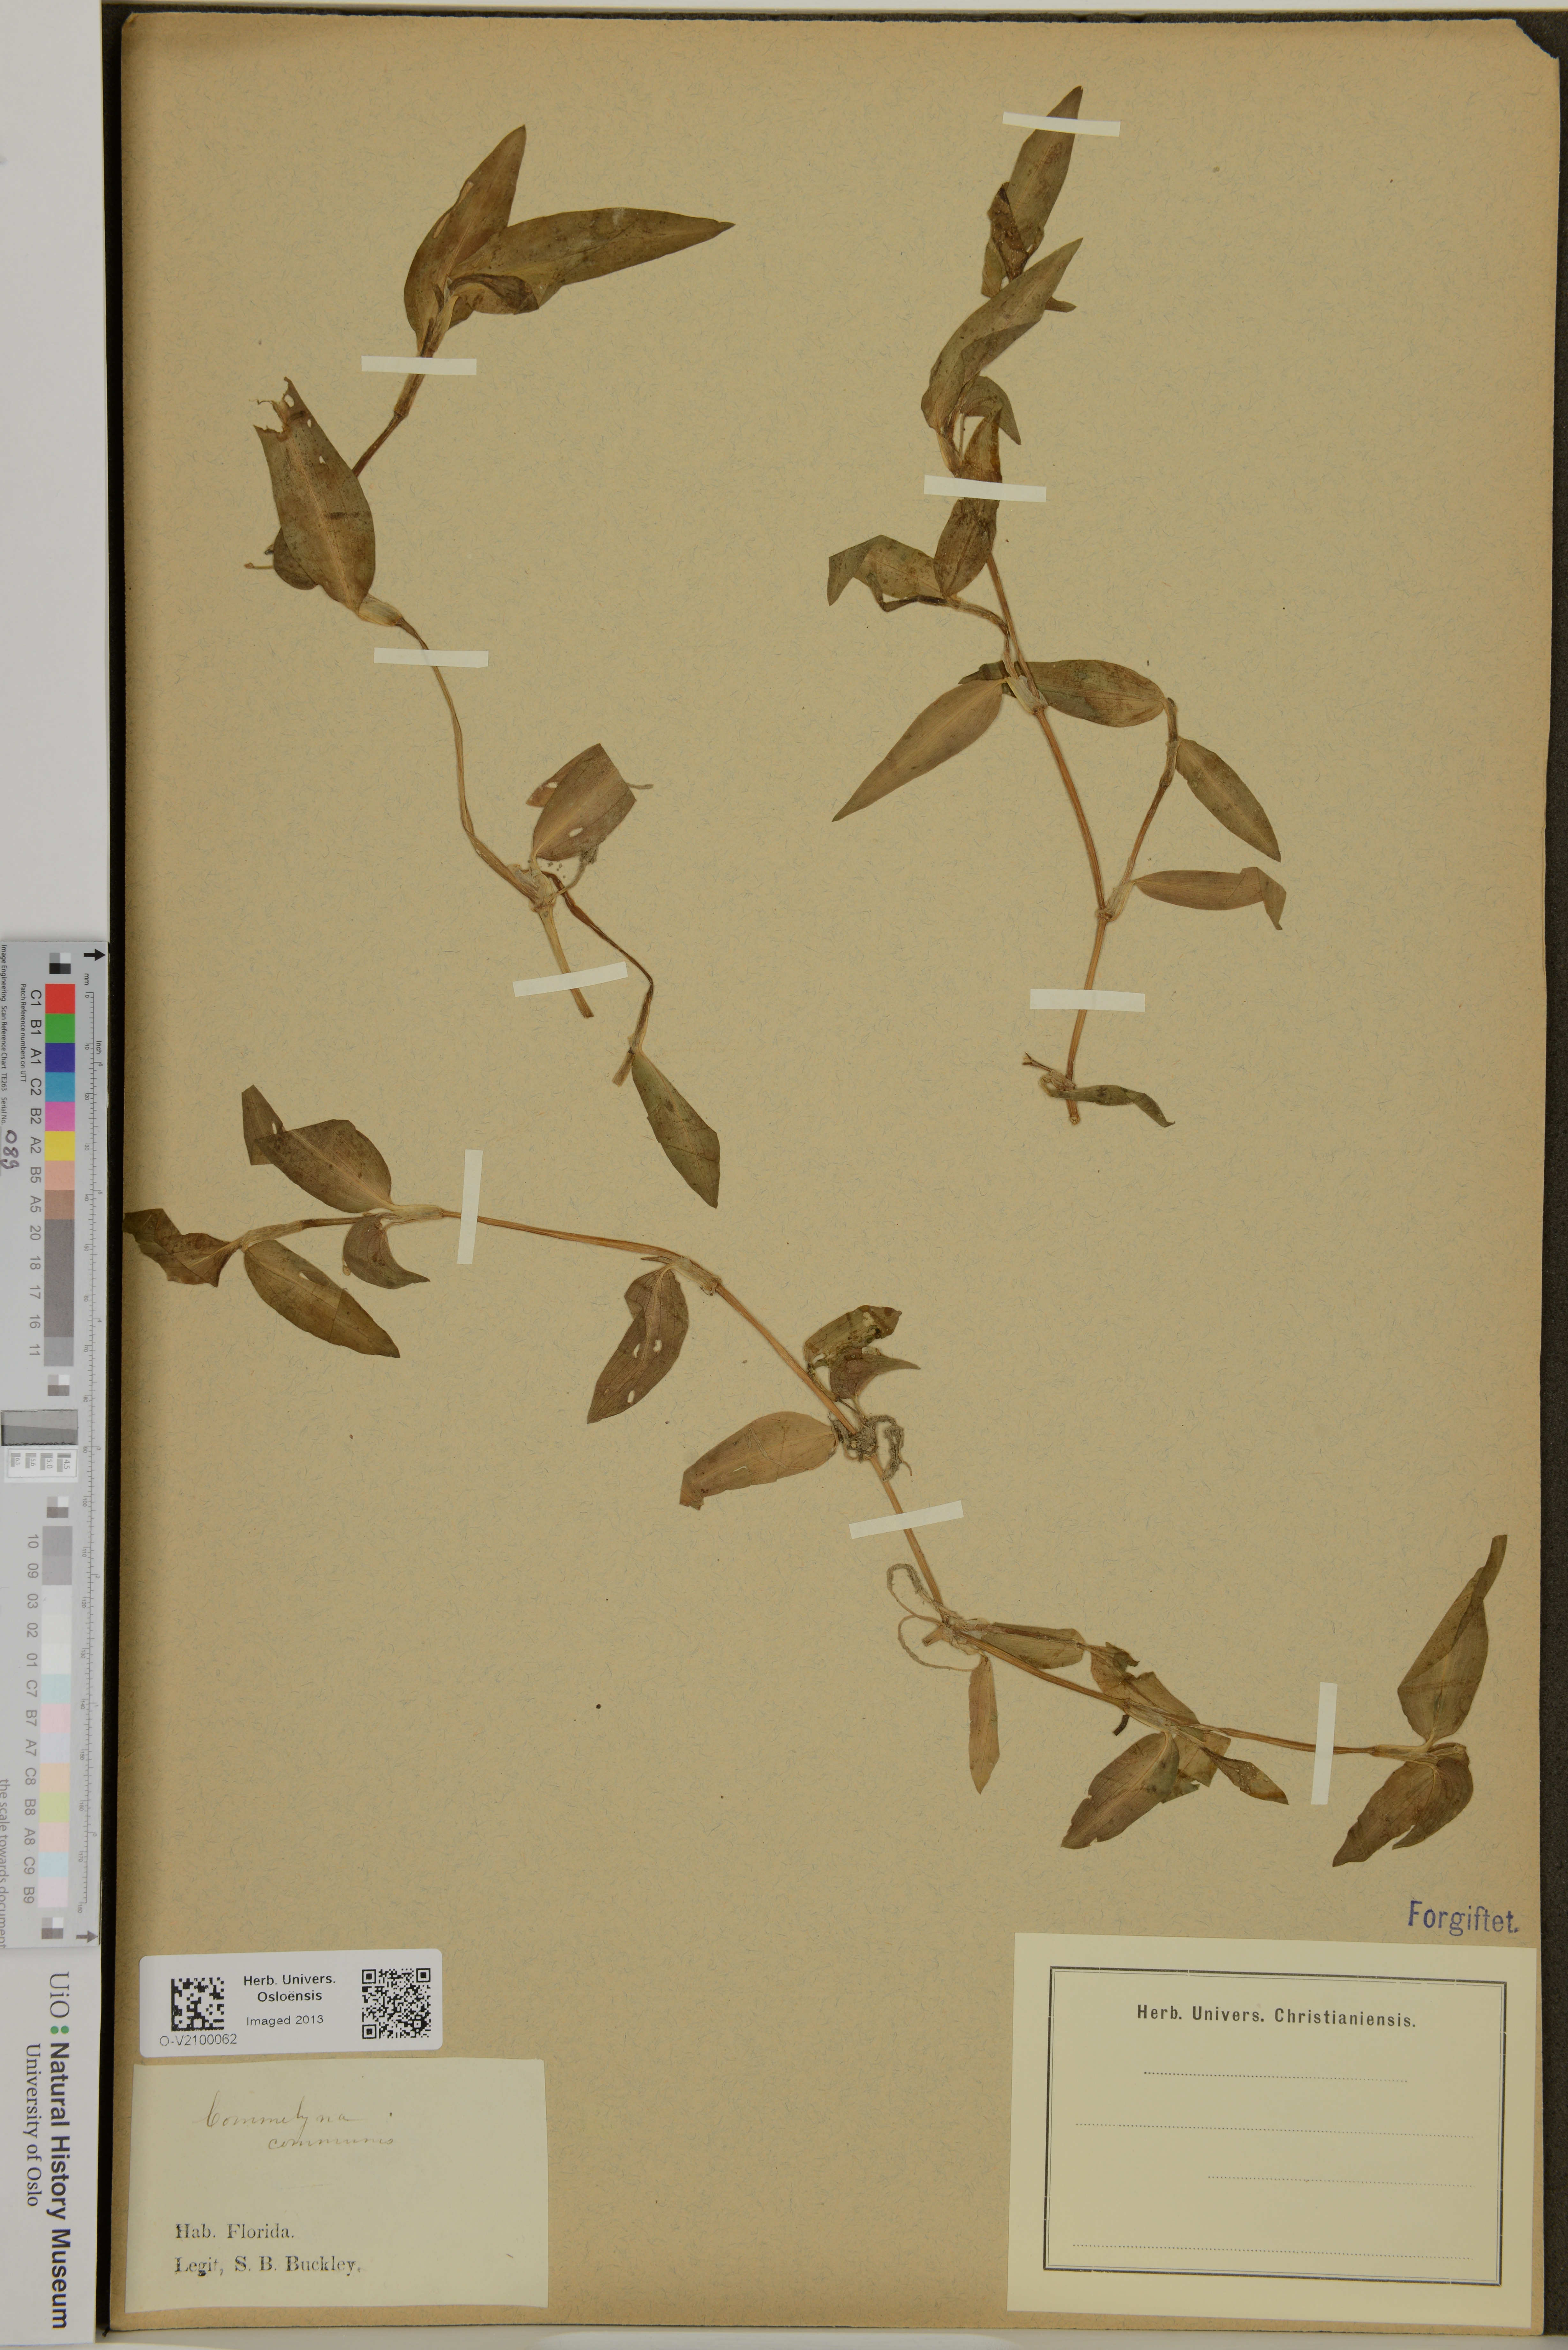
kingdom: Plantae
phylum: Tracheophyta
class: Liliopsida
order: Commelinales
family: Commelinaceae
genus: Commelina
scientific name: Commelina communis
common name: Asiatic dayflower
